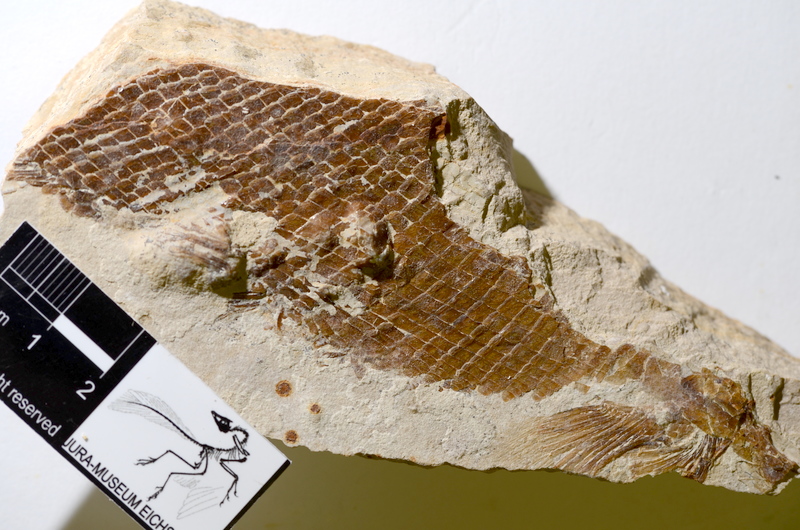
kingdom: Animalia
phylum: Chordata
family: Ophiopsiellidae
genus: Furo
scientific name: Furo
